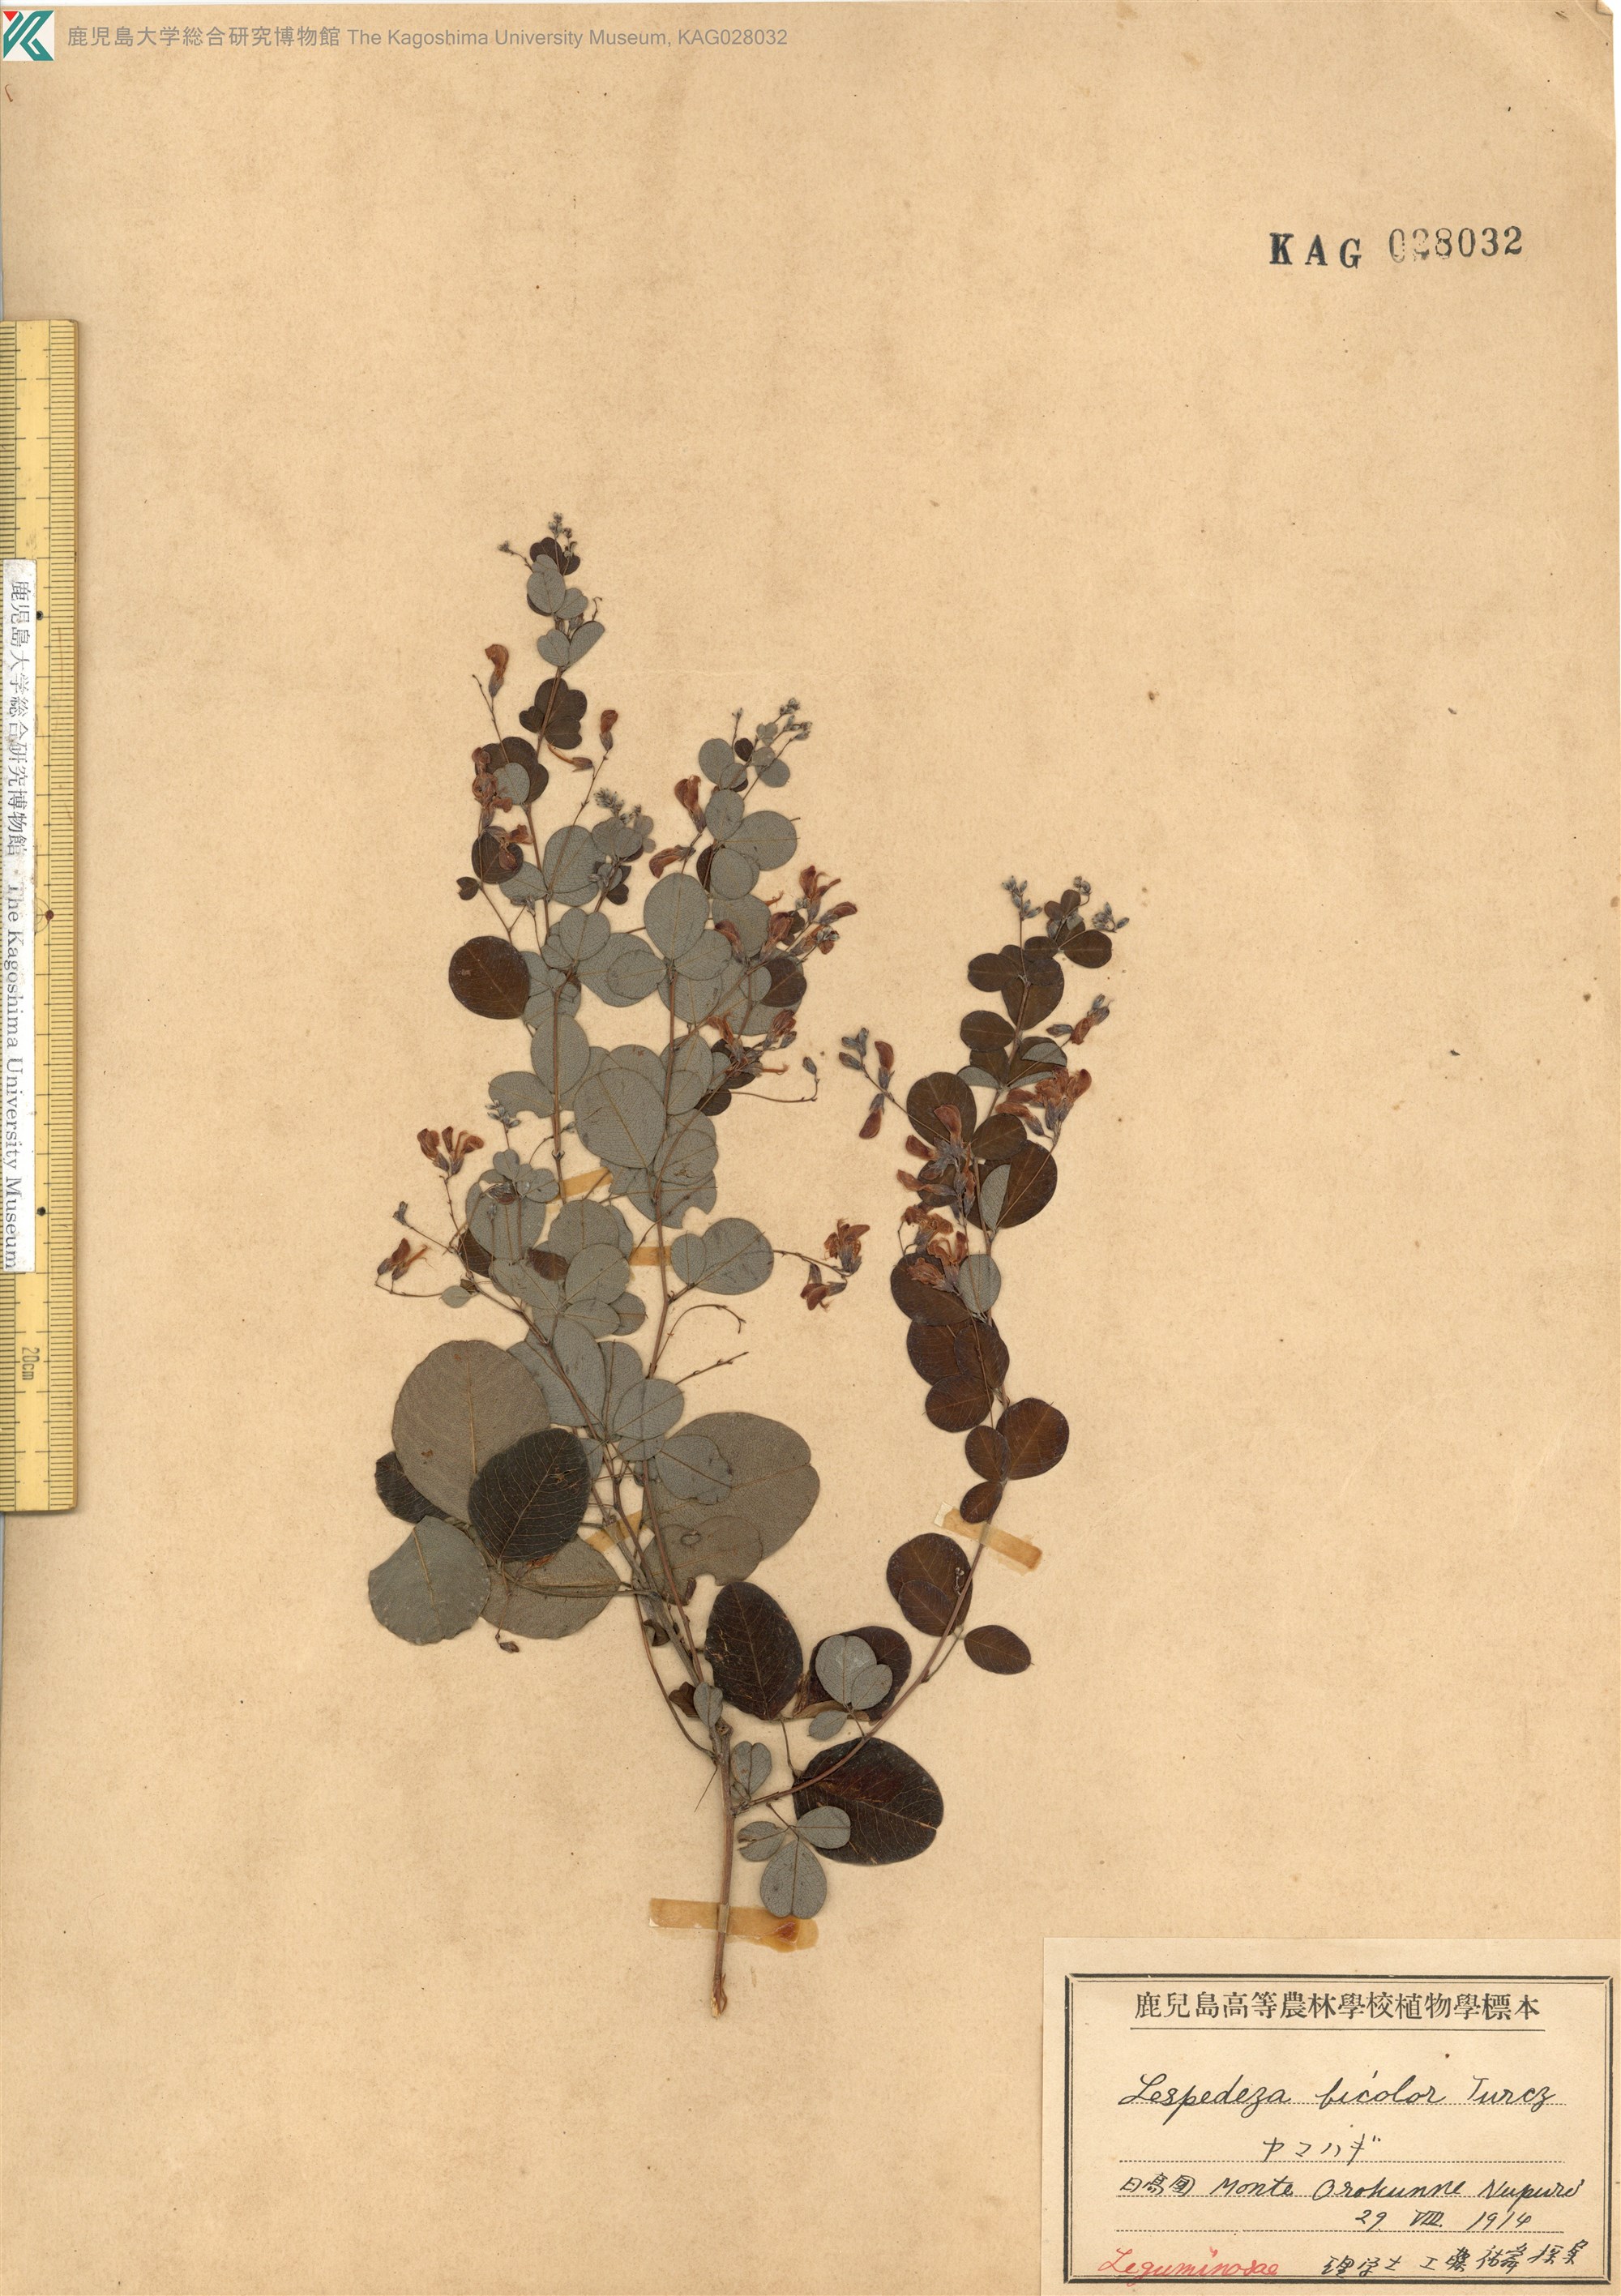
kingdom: Plantae
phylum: Tracheophyta
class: Magnoliopsida
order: Fabales
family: Fabaceae
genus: Lespedeza
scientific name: Lespedeza bicolor
